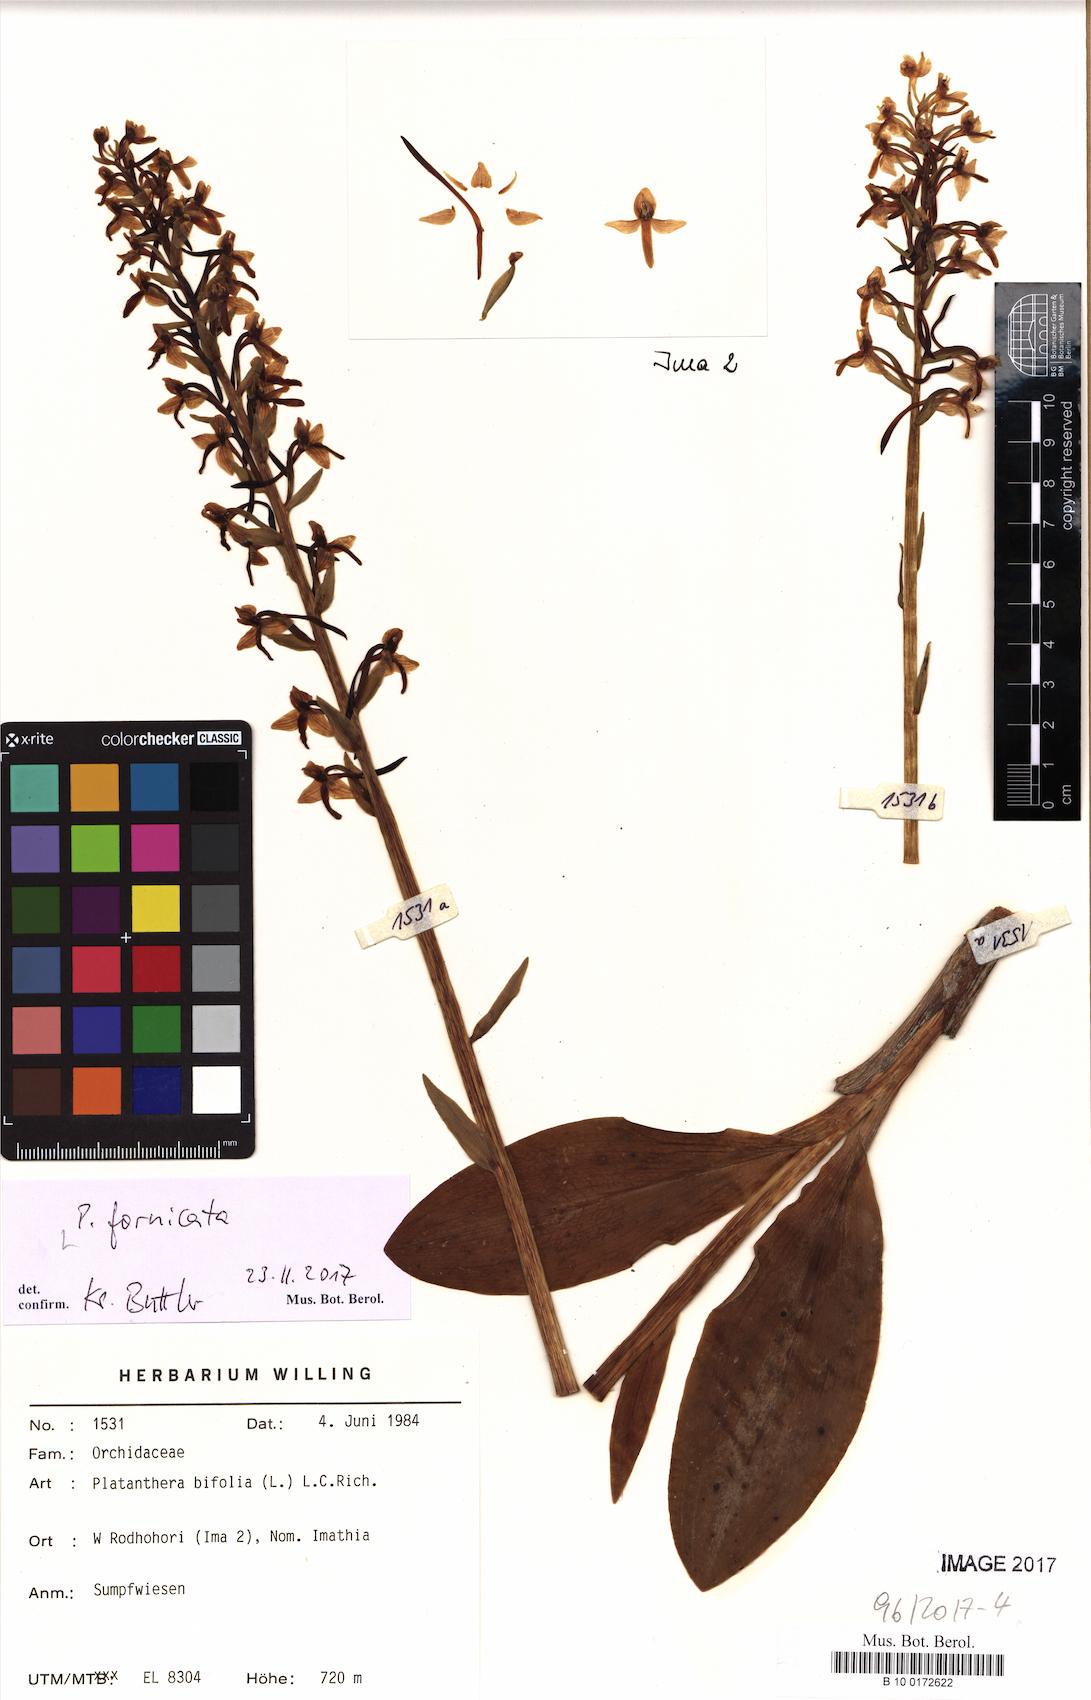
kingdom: Plantae
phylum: Tracheophyta
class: Liliopsida
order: Asparagales
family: Orchidaceae
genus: Platanthera
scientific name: Platanthera bifolia
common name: Lesser butterfly-orchid
